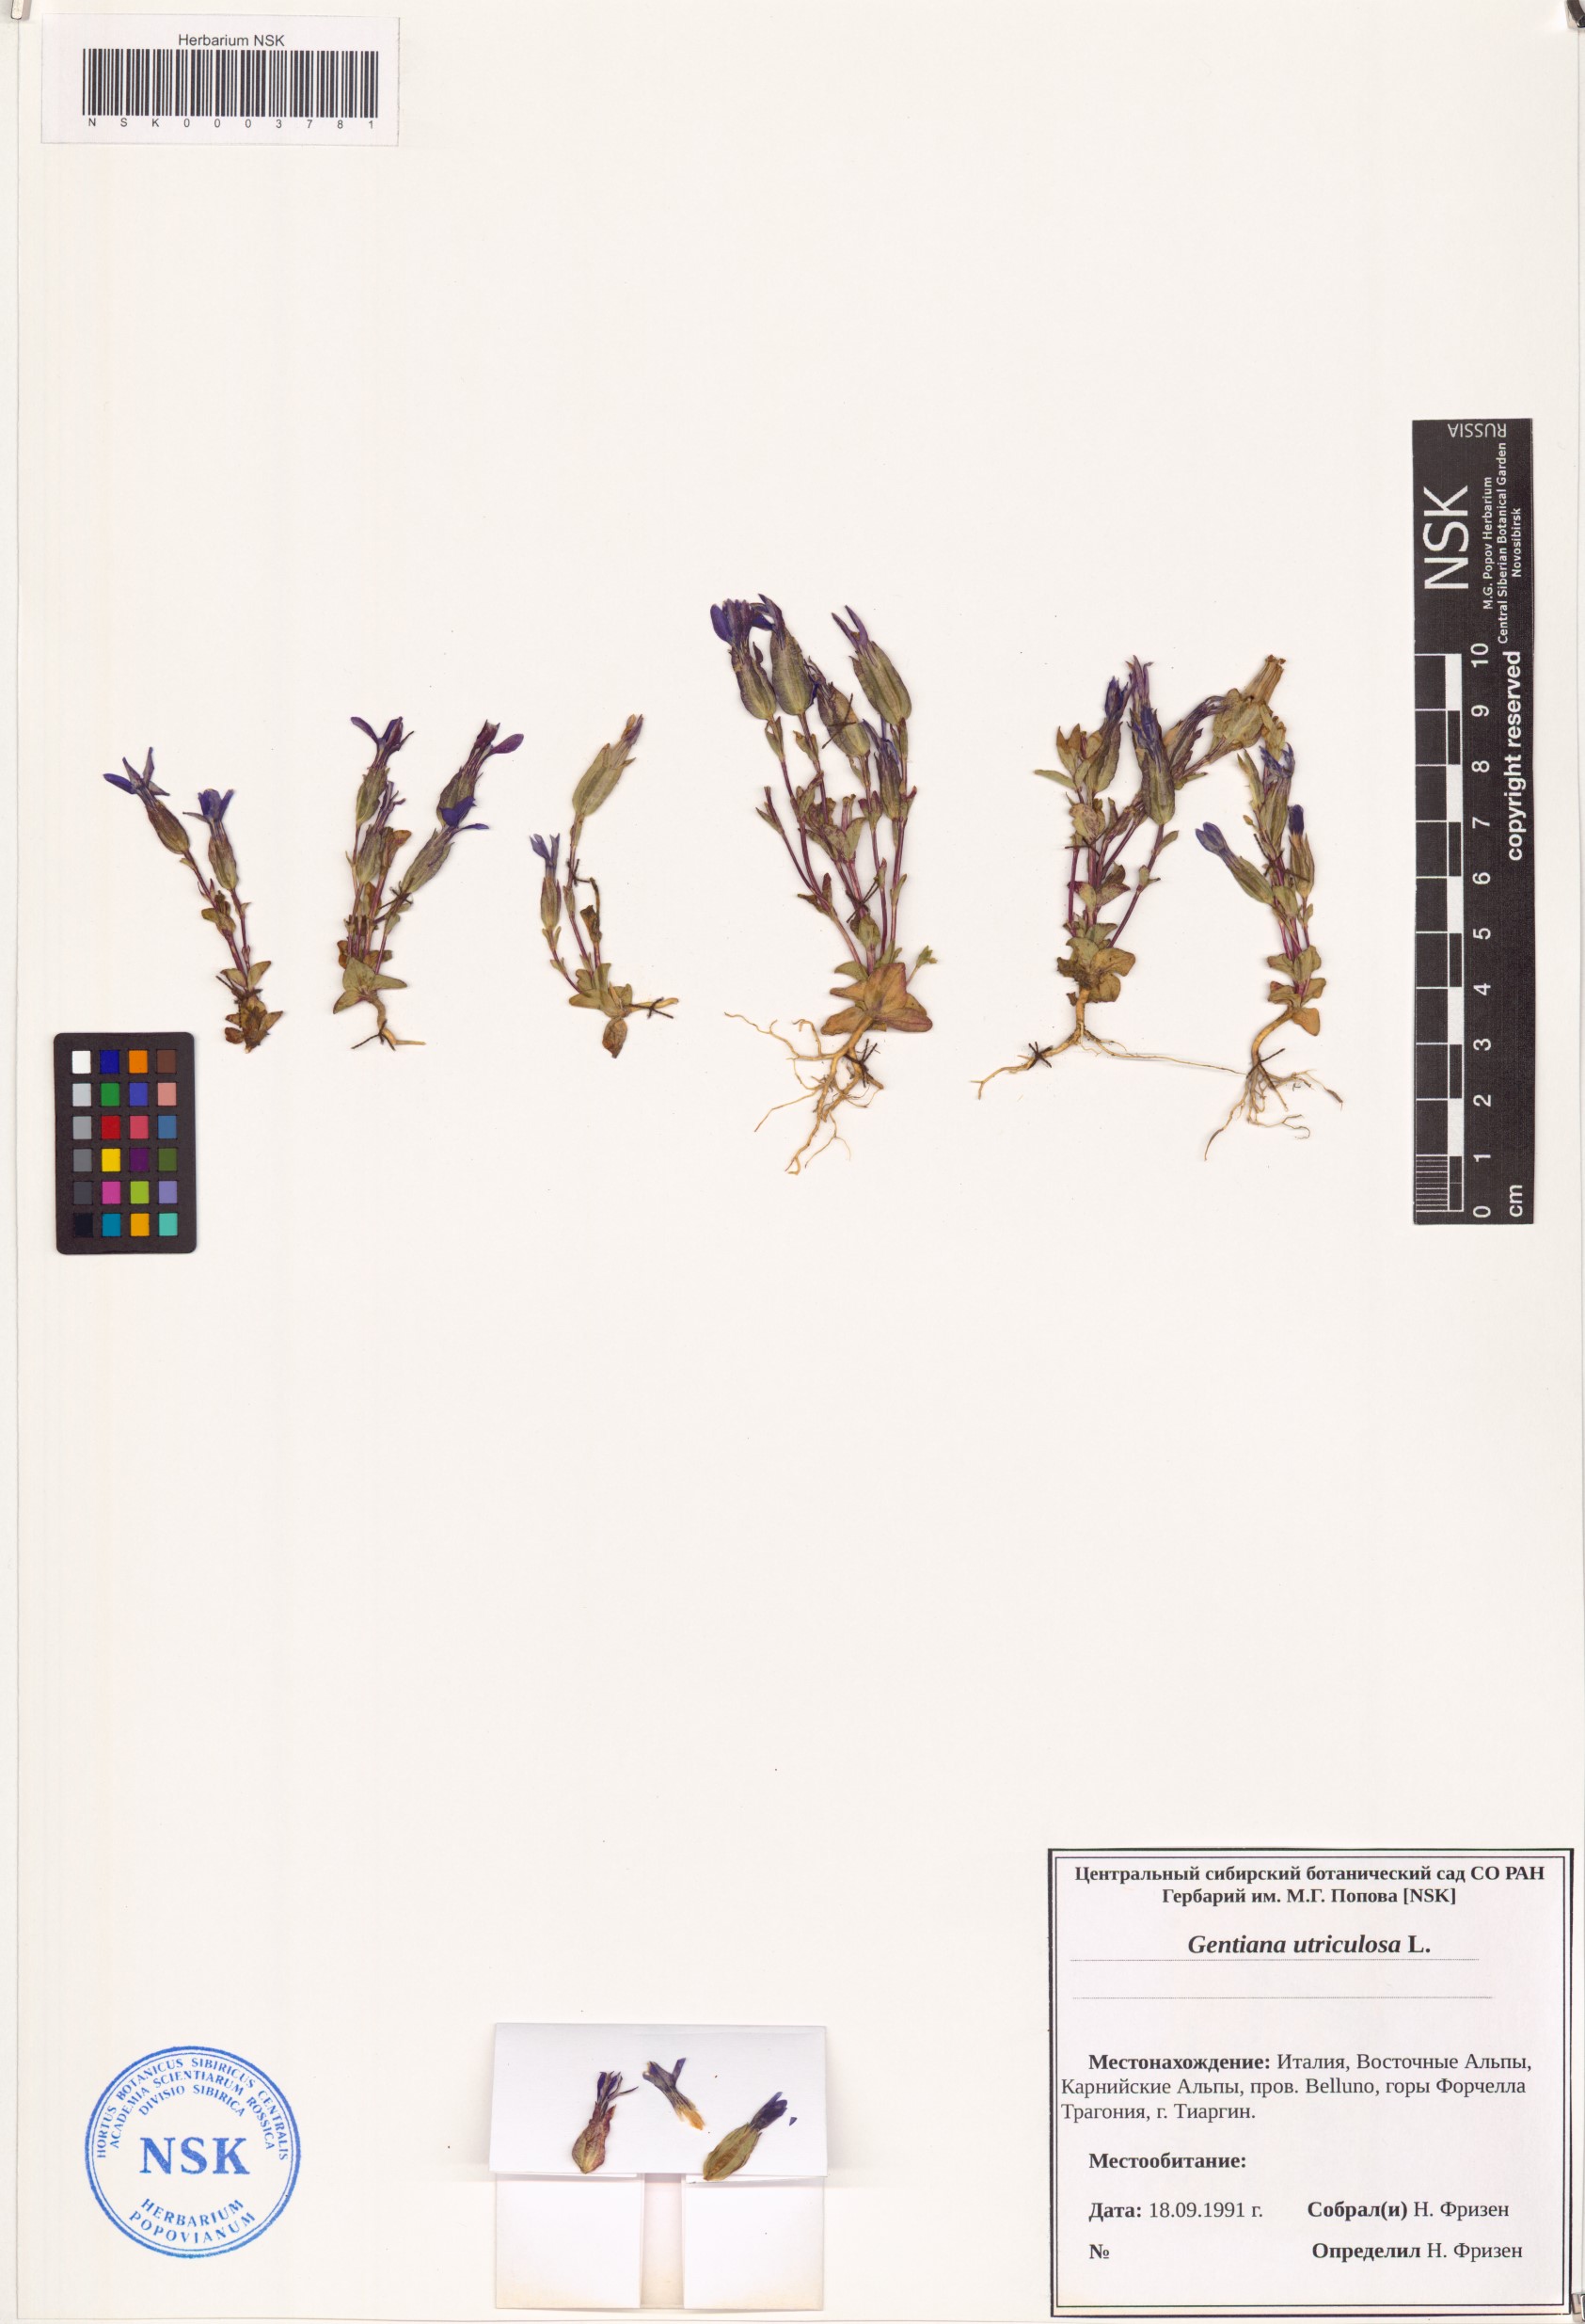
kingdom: Plantae
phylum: Tracheophyta
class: Magnoliopsida
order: Gentianales
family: Gentianaceae
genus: Gentiana
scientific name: Gentiana utriculosa
